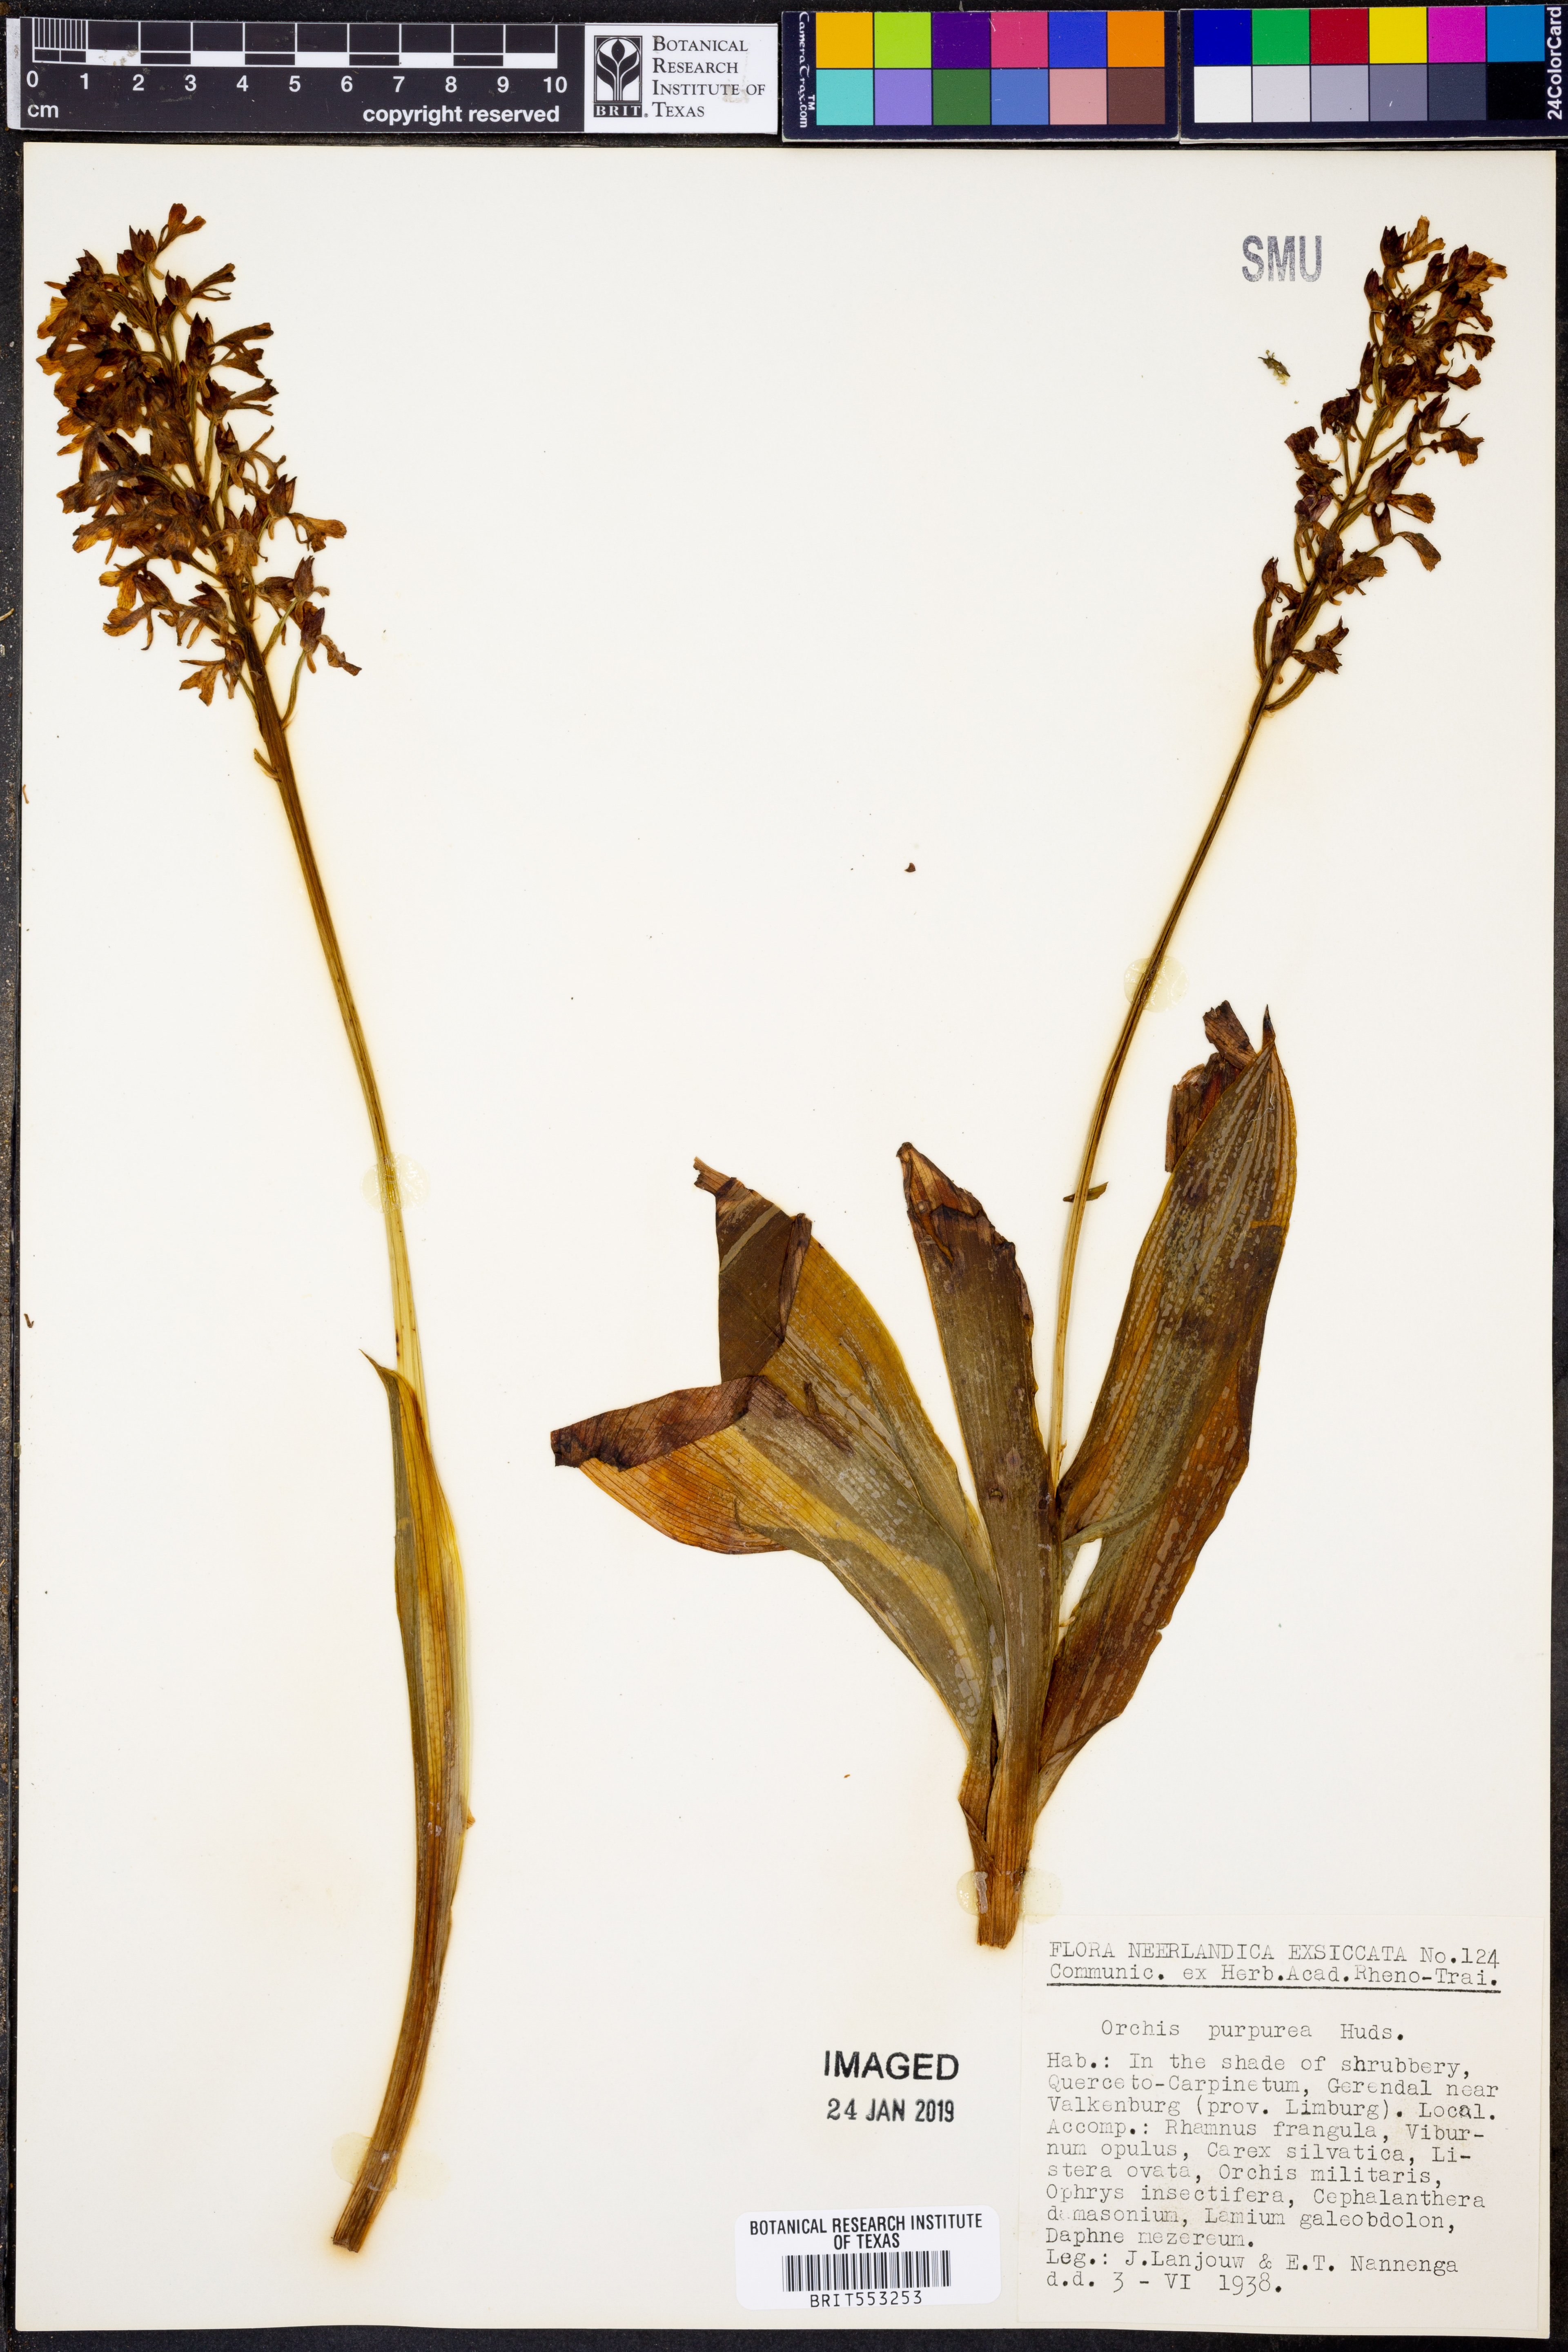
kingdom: Plantae
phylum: Tracheophyta
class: Liliopsida
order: Asparagales
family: Orchidaceae
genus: Orchis
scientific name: Orchis purpurea
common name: Lady orchid
